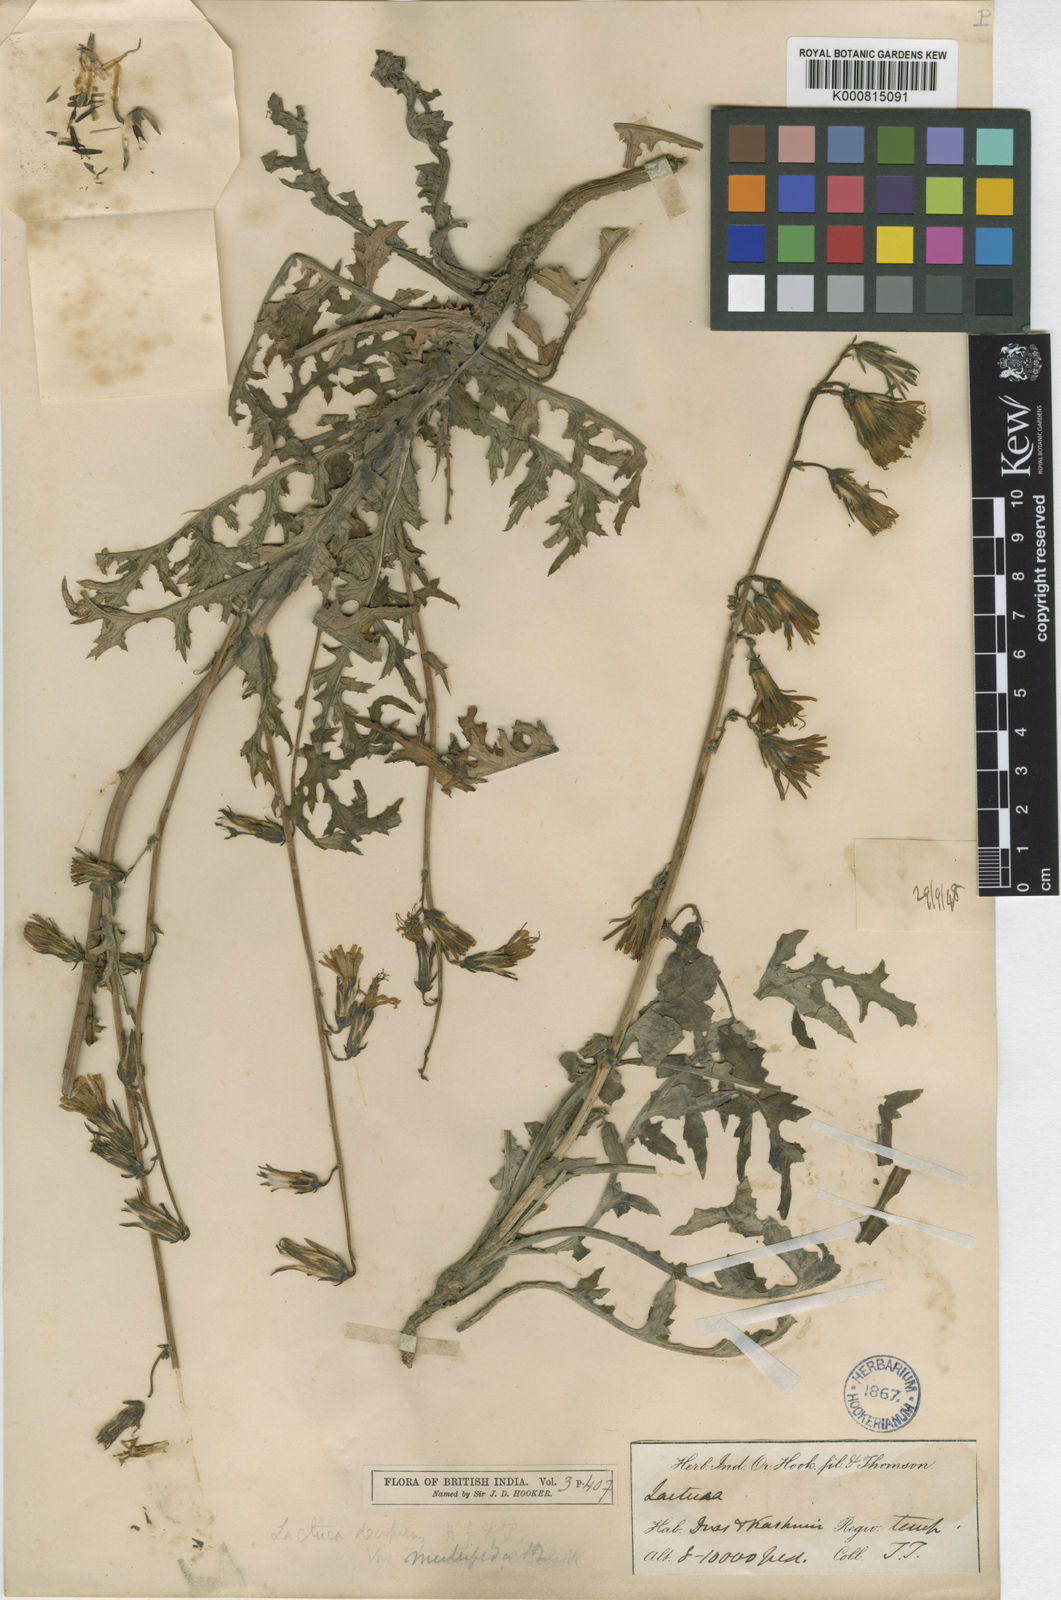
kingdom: Plantae
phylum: Tracheophyta
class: Magnoliopsida
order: Asterales
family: Asteraceae
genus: Melanoseris
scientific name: Melanoseris decipiens
